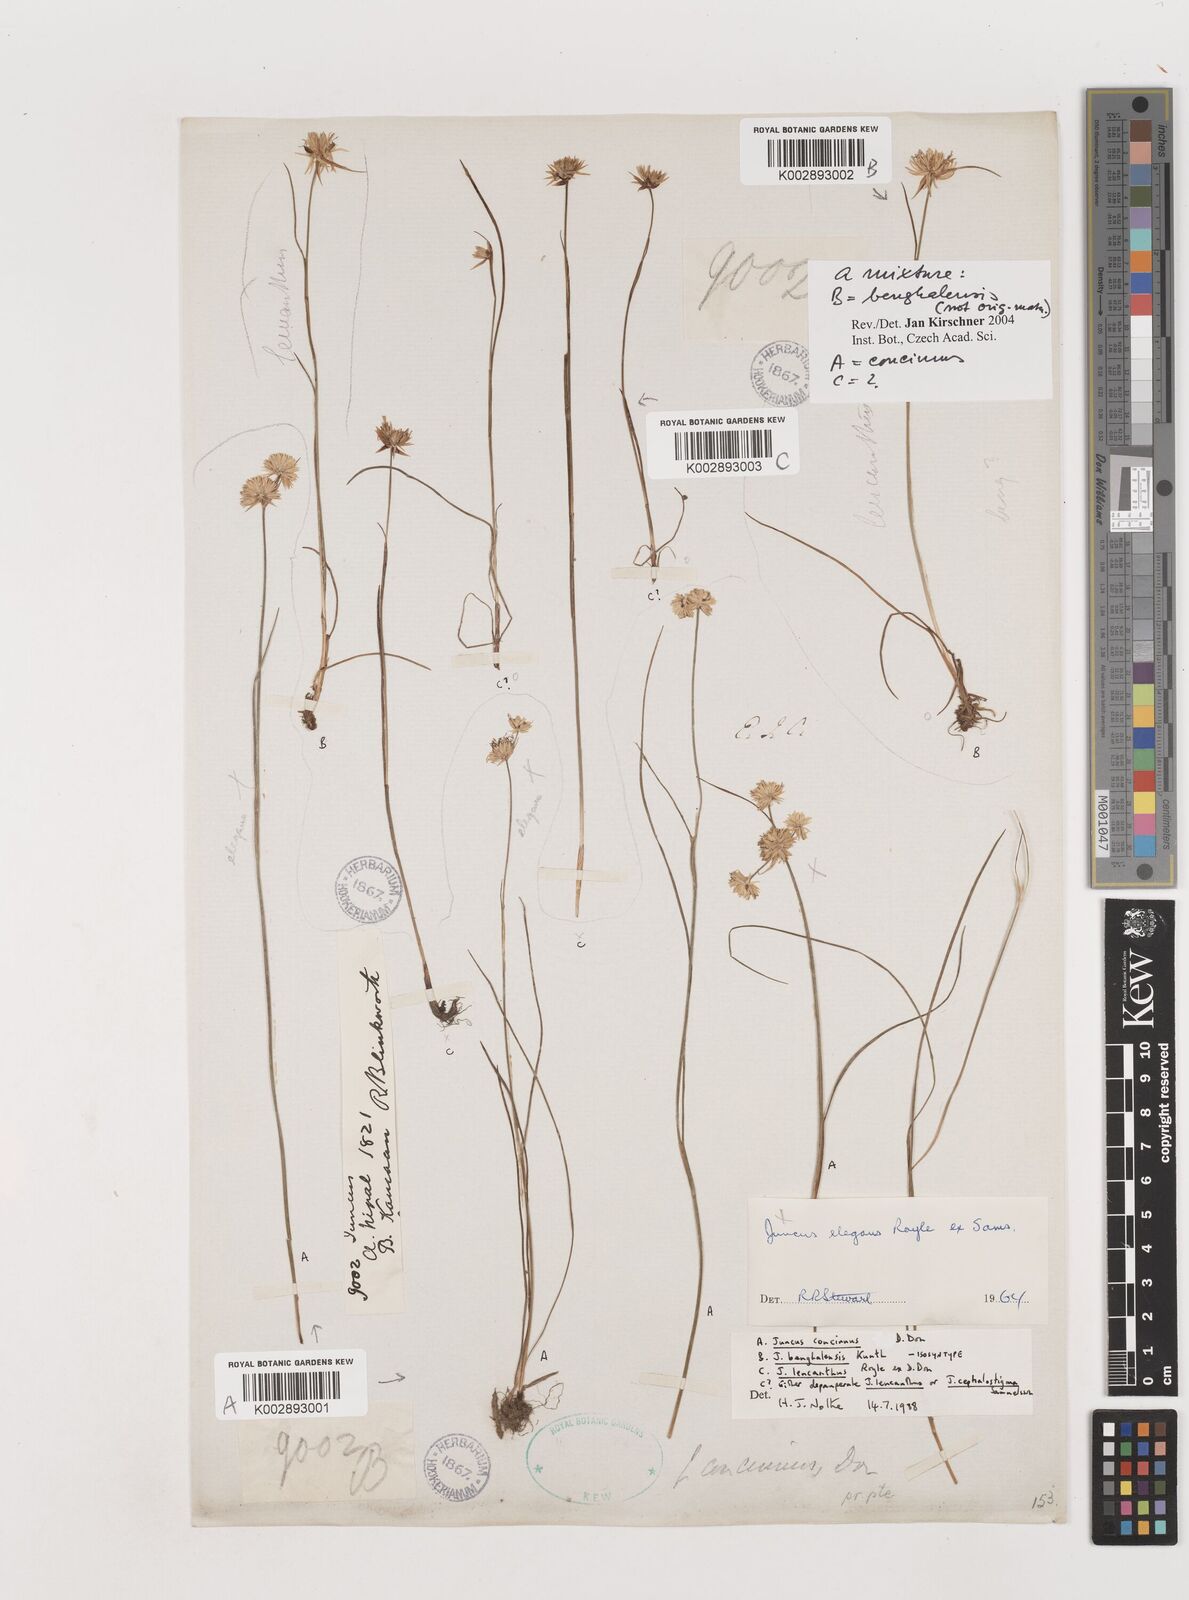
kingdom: Plantae
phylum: Tracheophyta
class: Liliopsida
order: Poales
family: Juncaceae
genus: Juncus
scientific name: Juncus
